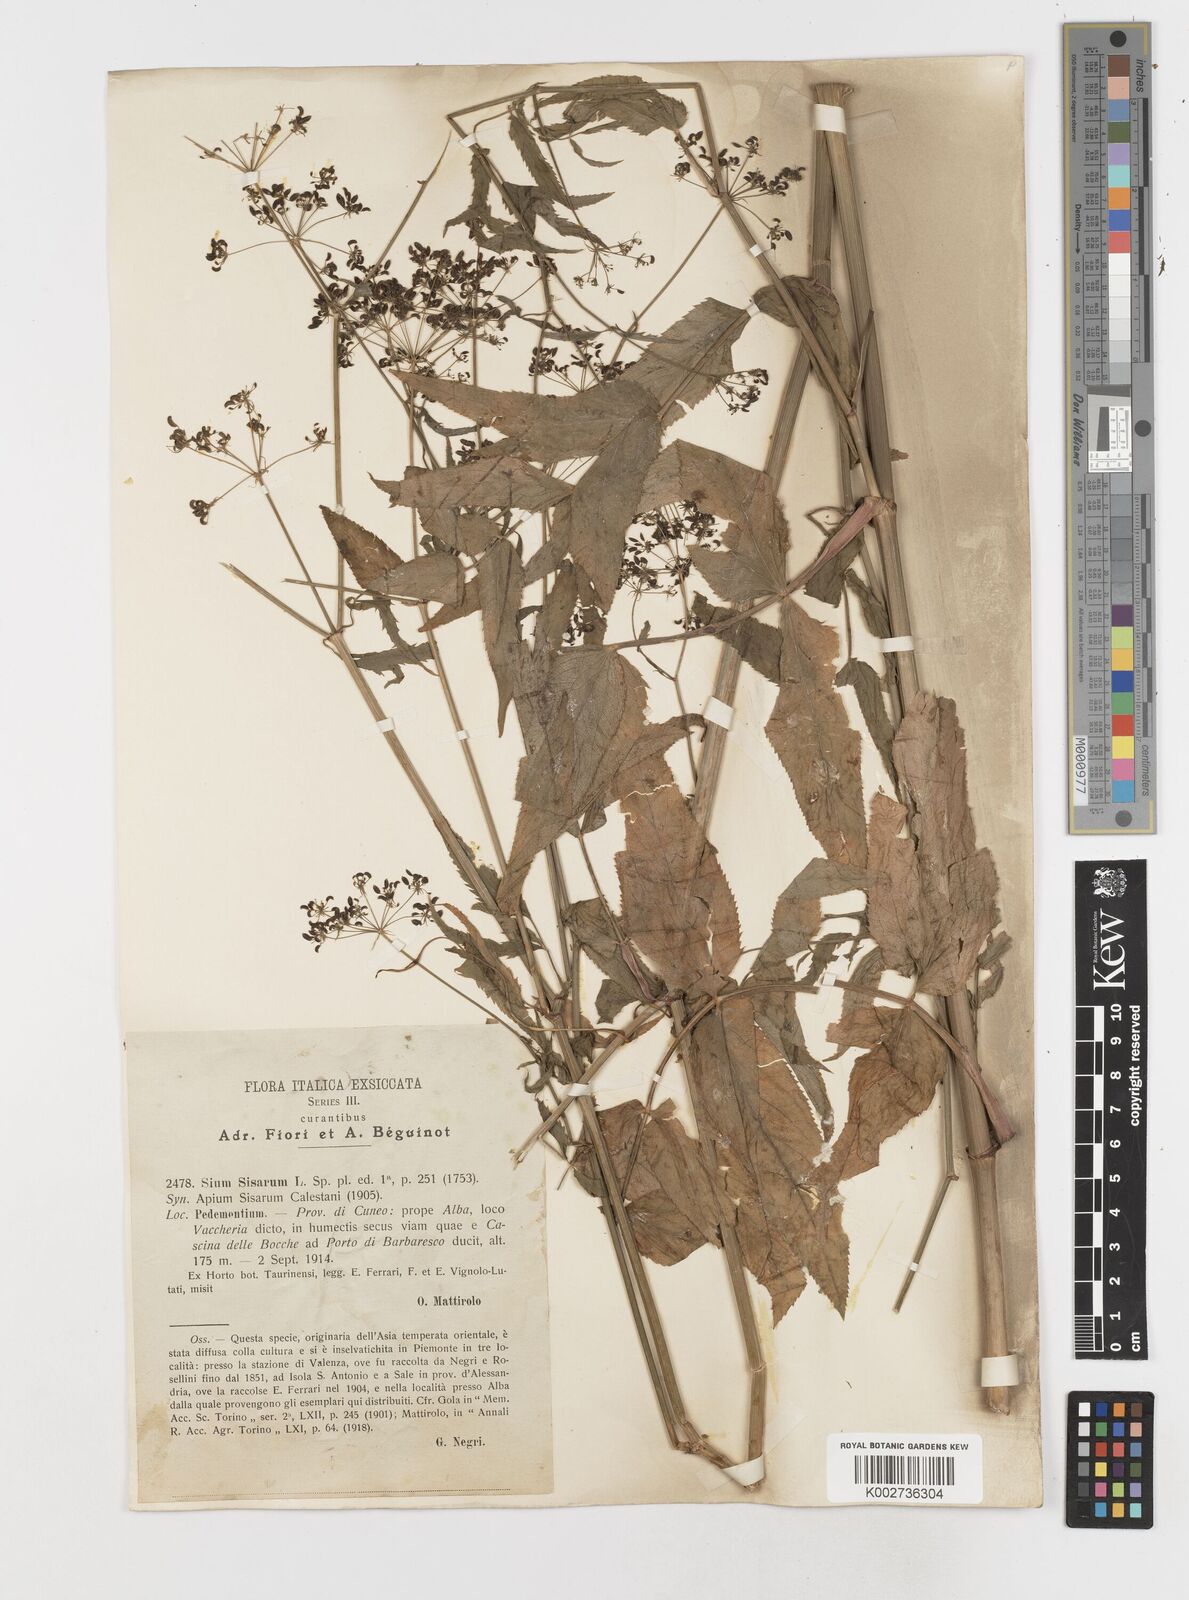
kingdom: Plantae
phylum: Tracheophyta
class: Magnoliopsida
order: Apiales
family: Apiaceae
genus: Sium
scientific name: Sium sisarum
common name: Skirret
